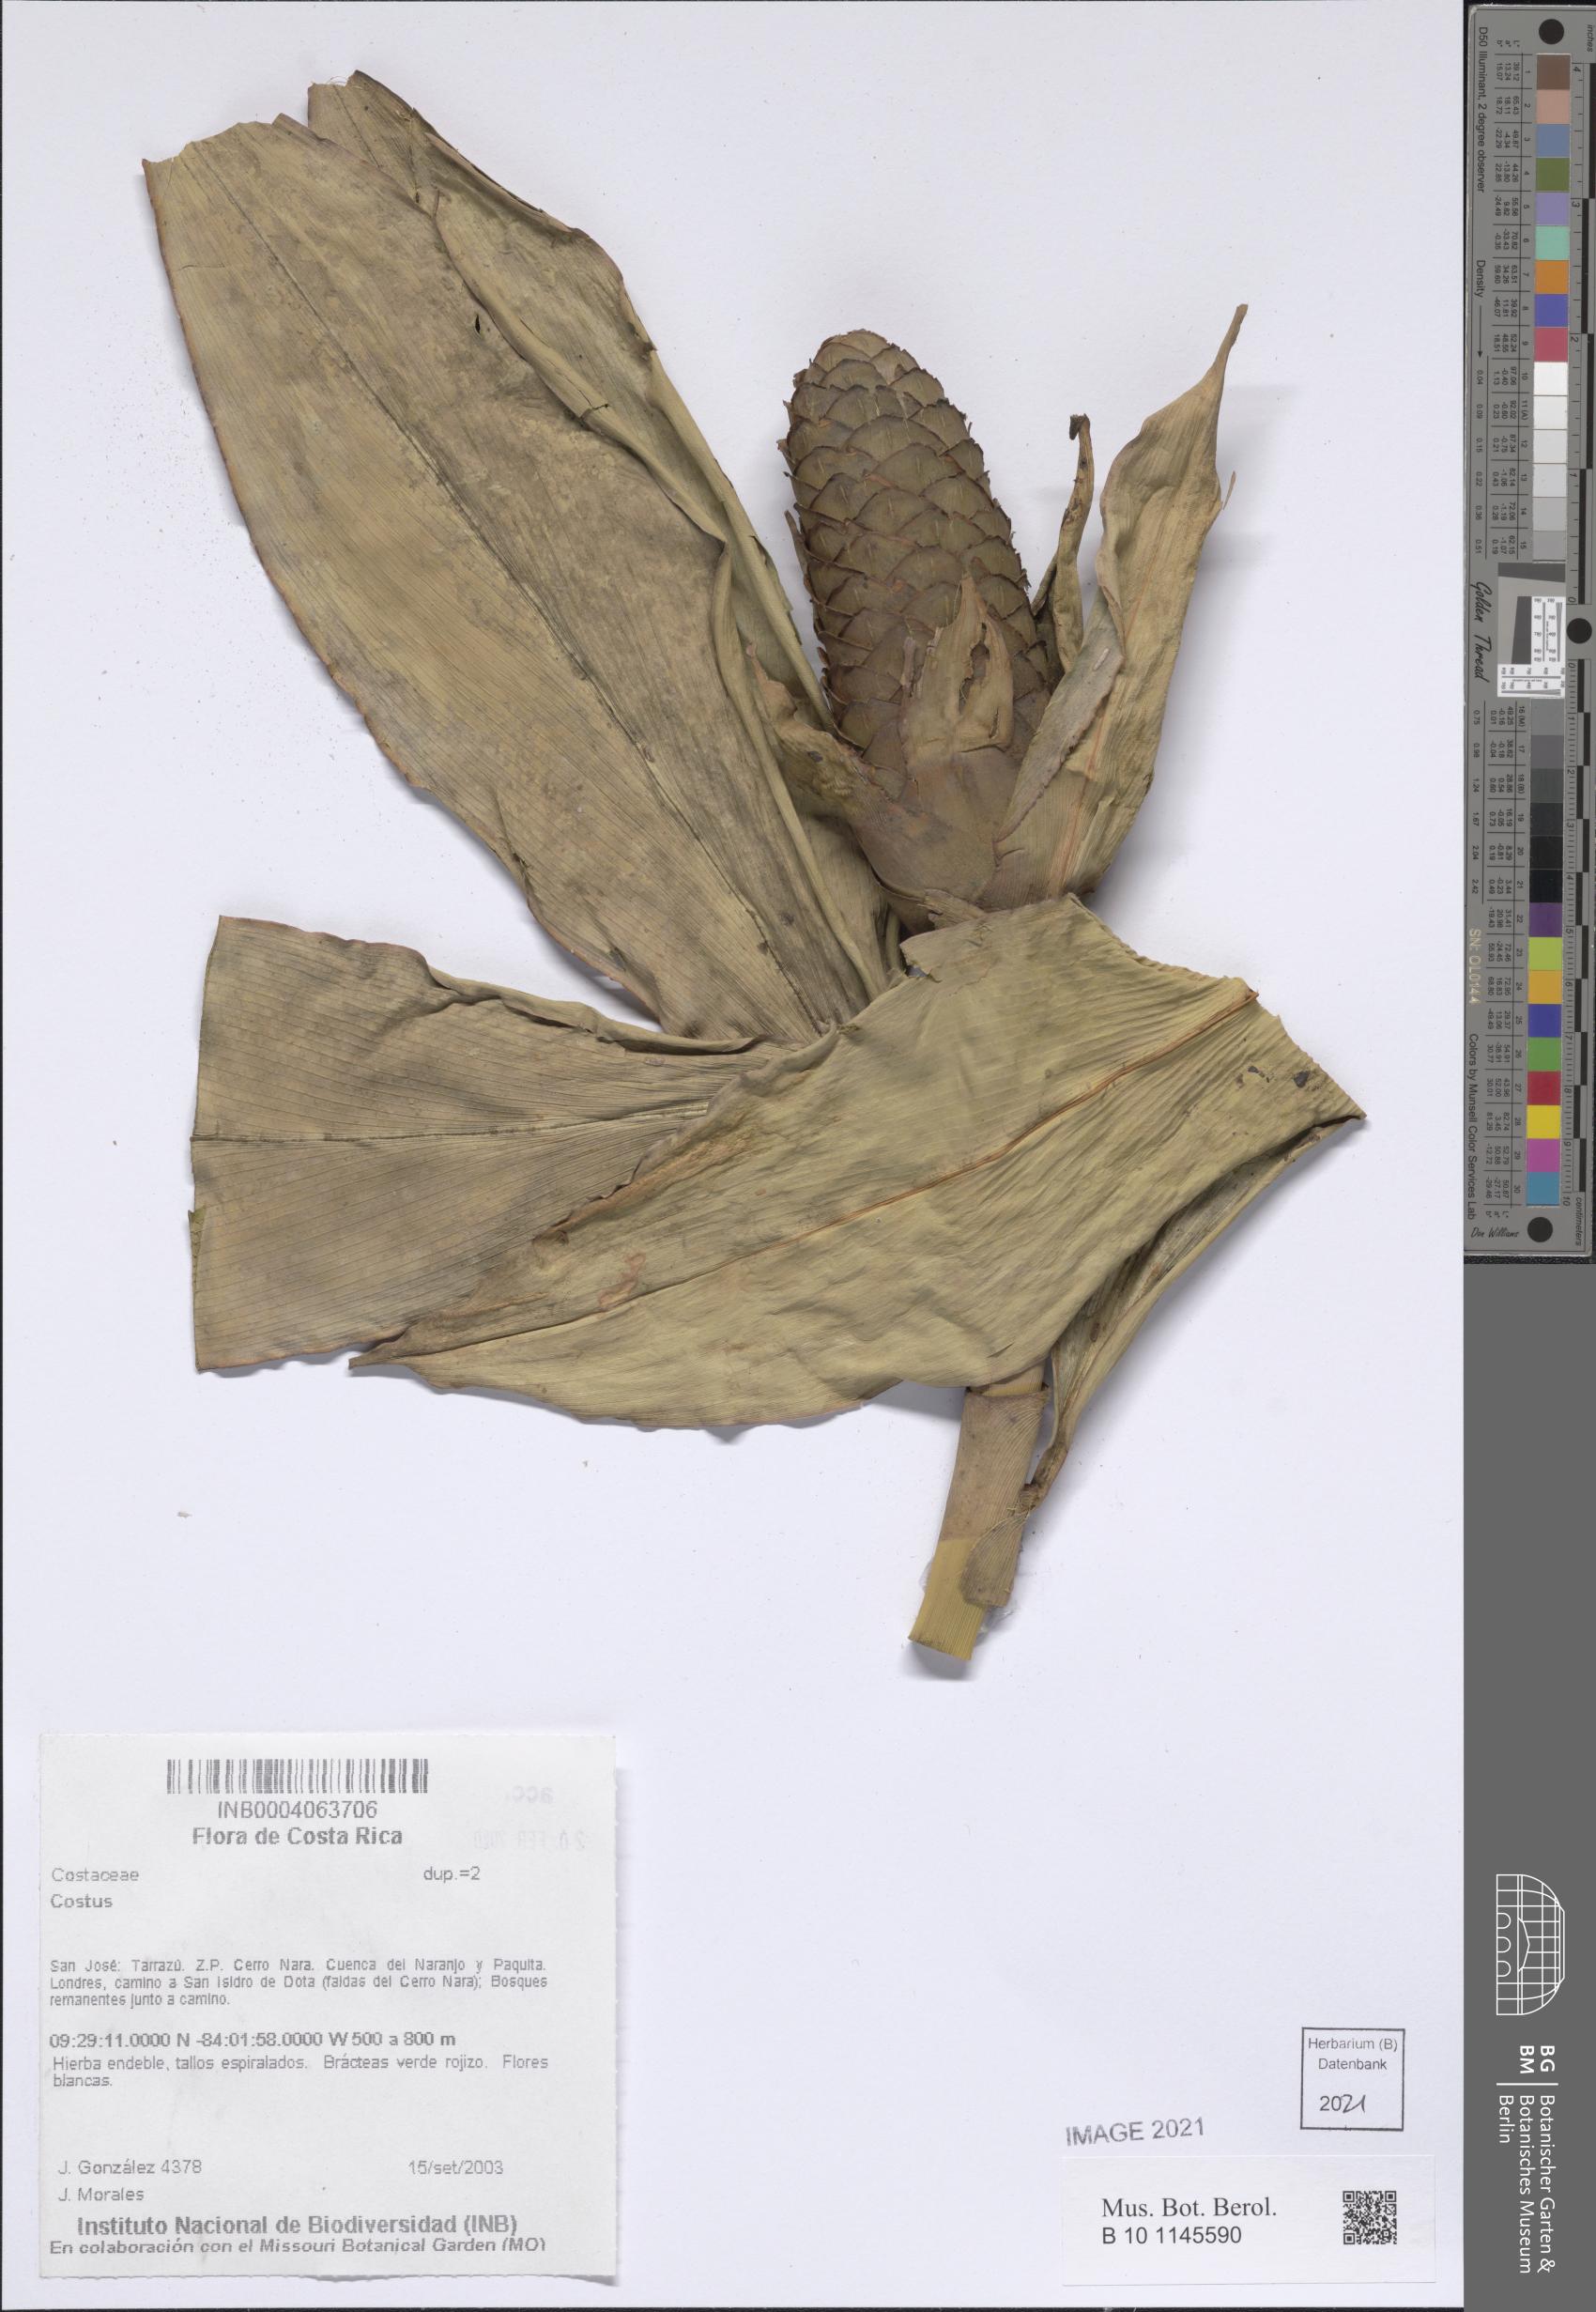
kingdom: Plantae
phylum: Tracheophyta
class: Liliopsida
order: Zingiberales
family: Costaceae
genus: Costus
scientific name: Costus
